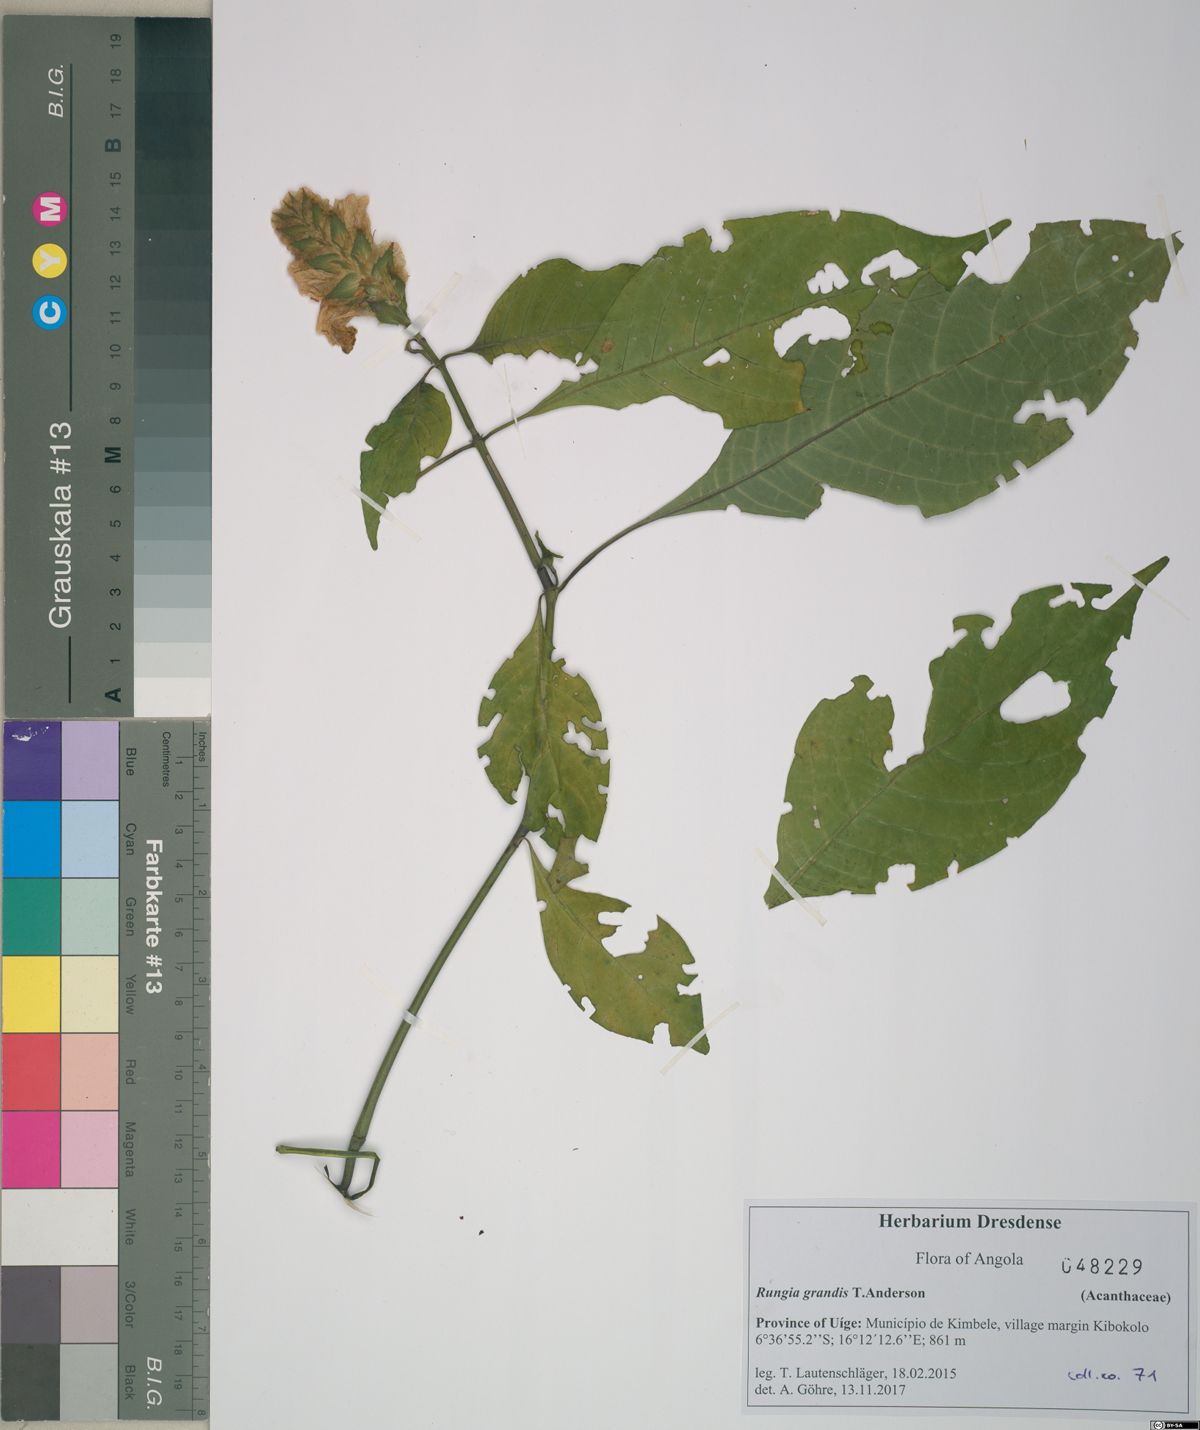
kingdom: Plantae
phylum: Tracheophyta
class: Magnoliopsida
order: Lamiales
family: Acanthaceae
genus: Justicia
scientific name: Justicia grandis
